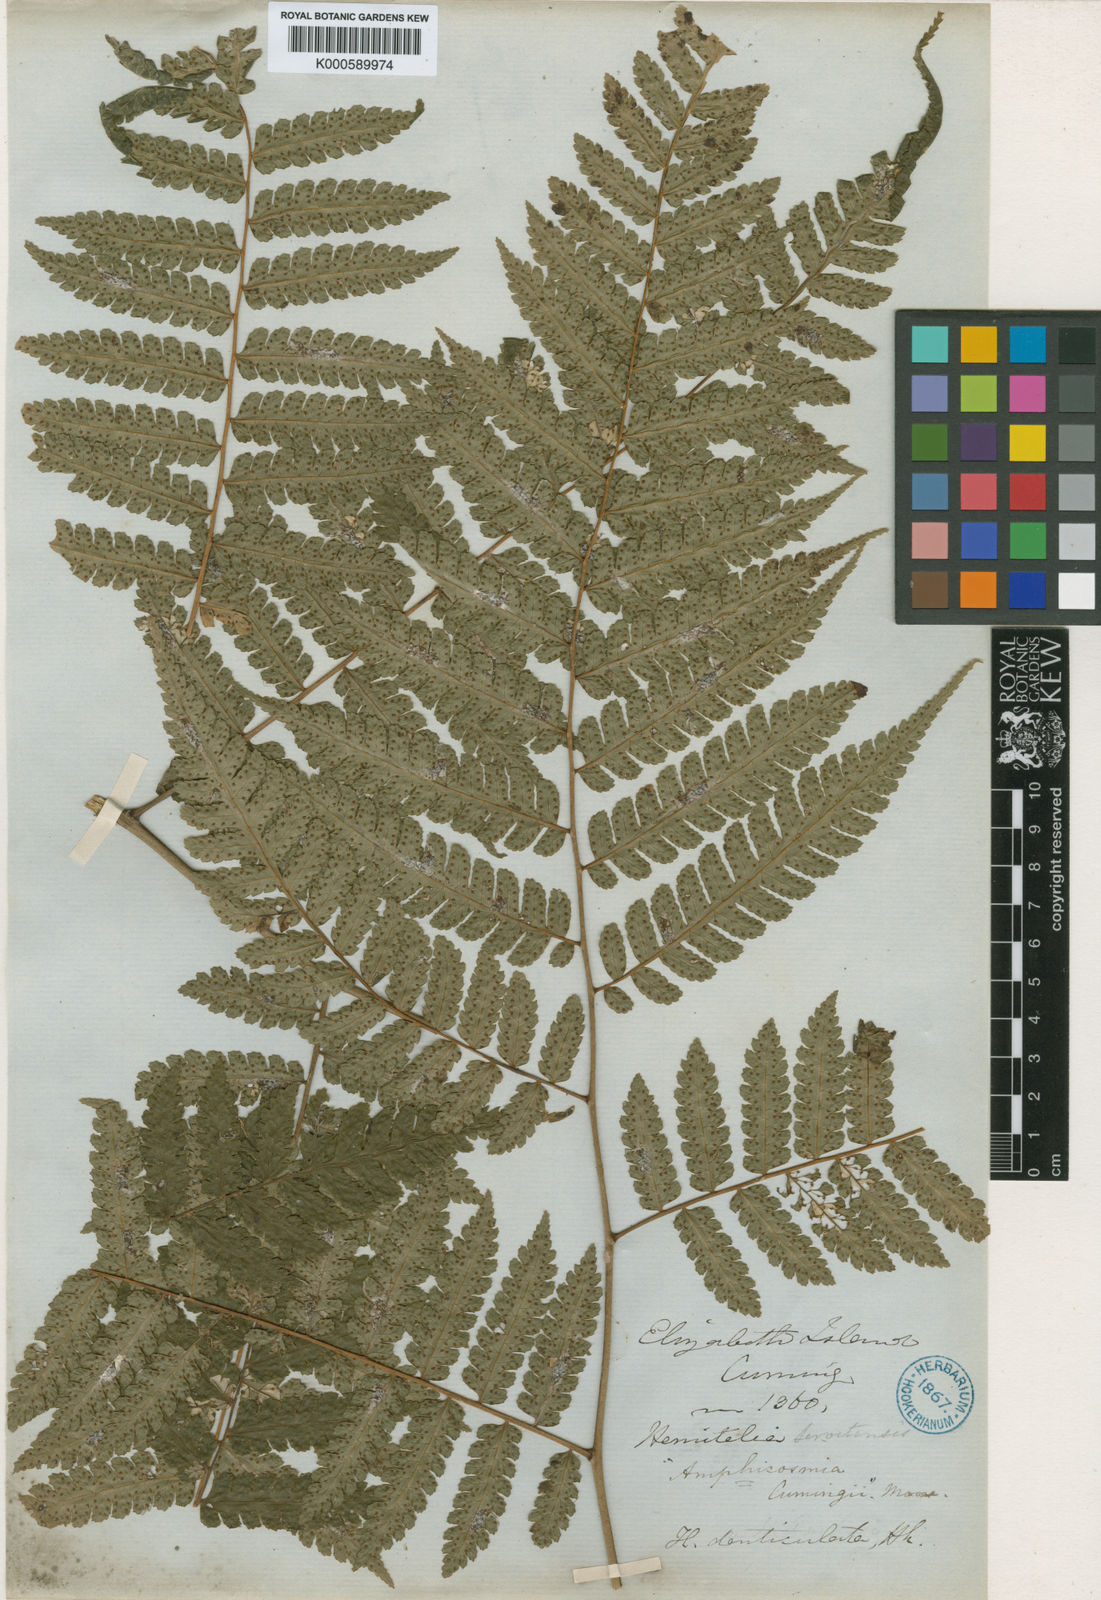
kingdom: Plantae
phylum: Tracheophyta
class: Polypodiopsida
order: Cyatheales
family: Cyatheaceae
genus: Cyathea
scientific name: Cyathea multiflora
